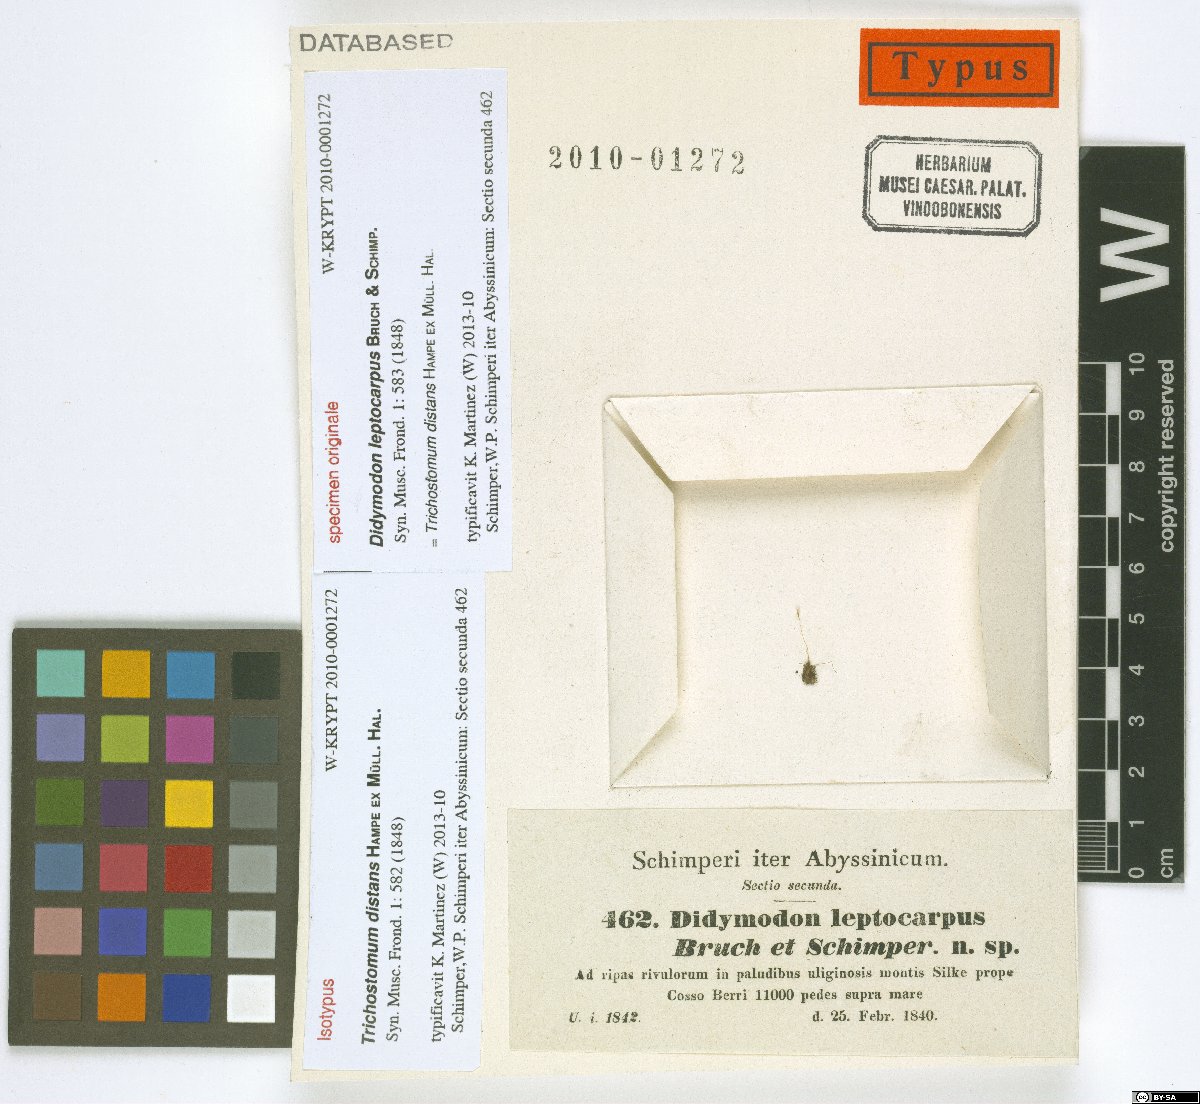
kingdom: Plantae
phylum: Bryophyta
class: Bryopsida
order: Pottiales
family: Pottiaceae
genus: Trichostomum
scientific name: Trichostomum distans
